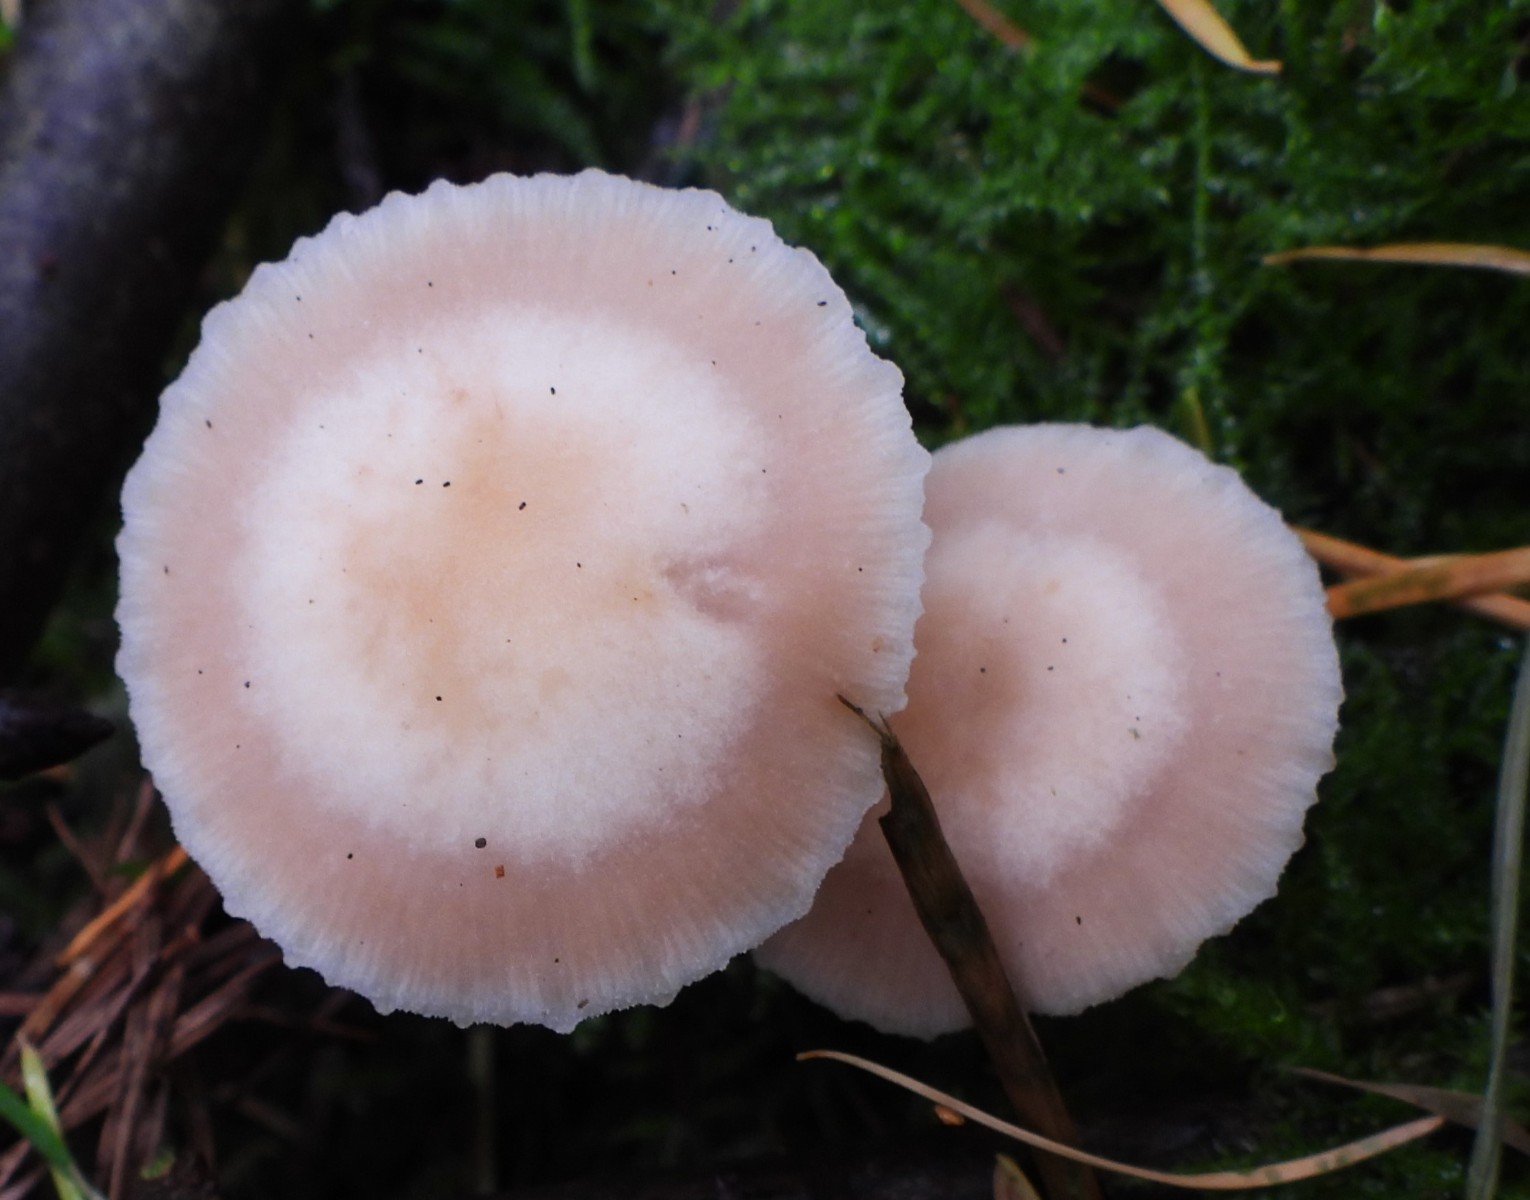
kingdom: Fungi
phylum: Basidiomycota
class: Agaricomycetes
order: Agaricales
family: Mycenaceae
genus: Mycena
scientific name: Mycena rosea
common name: rosa huesvamp
